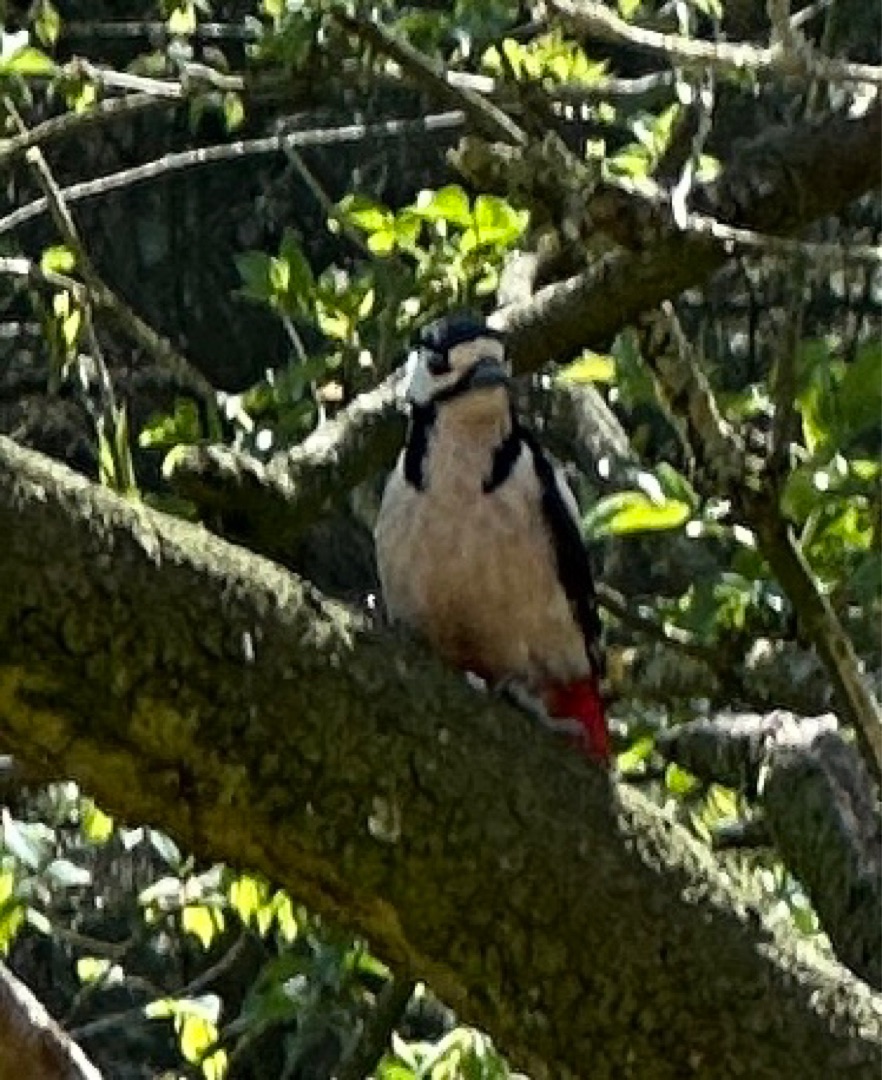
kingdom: Animalia
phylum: Chordata
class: Aves
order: Piciformes
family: Picidae
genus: Dendrocopos
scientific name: Dendrocopos major
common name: Stor flagspætte
